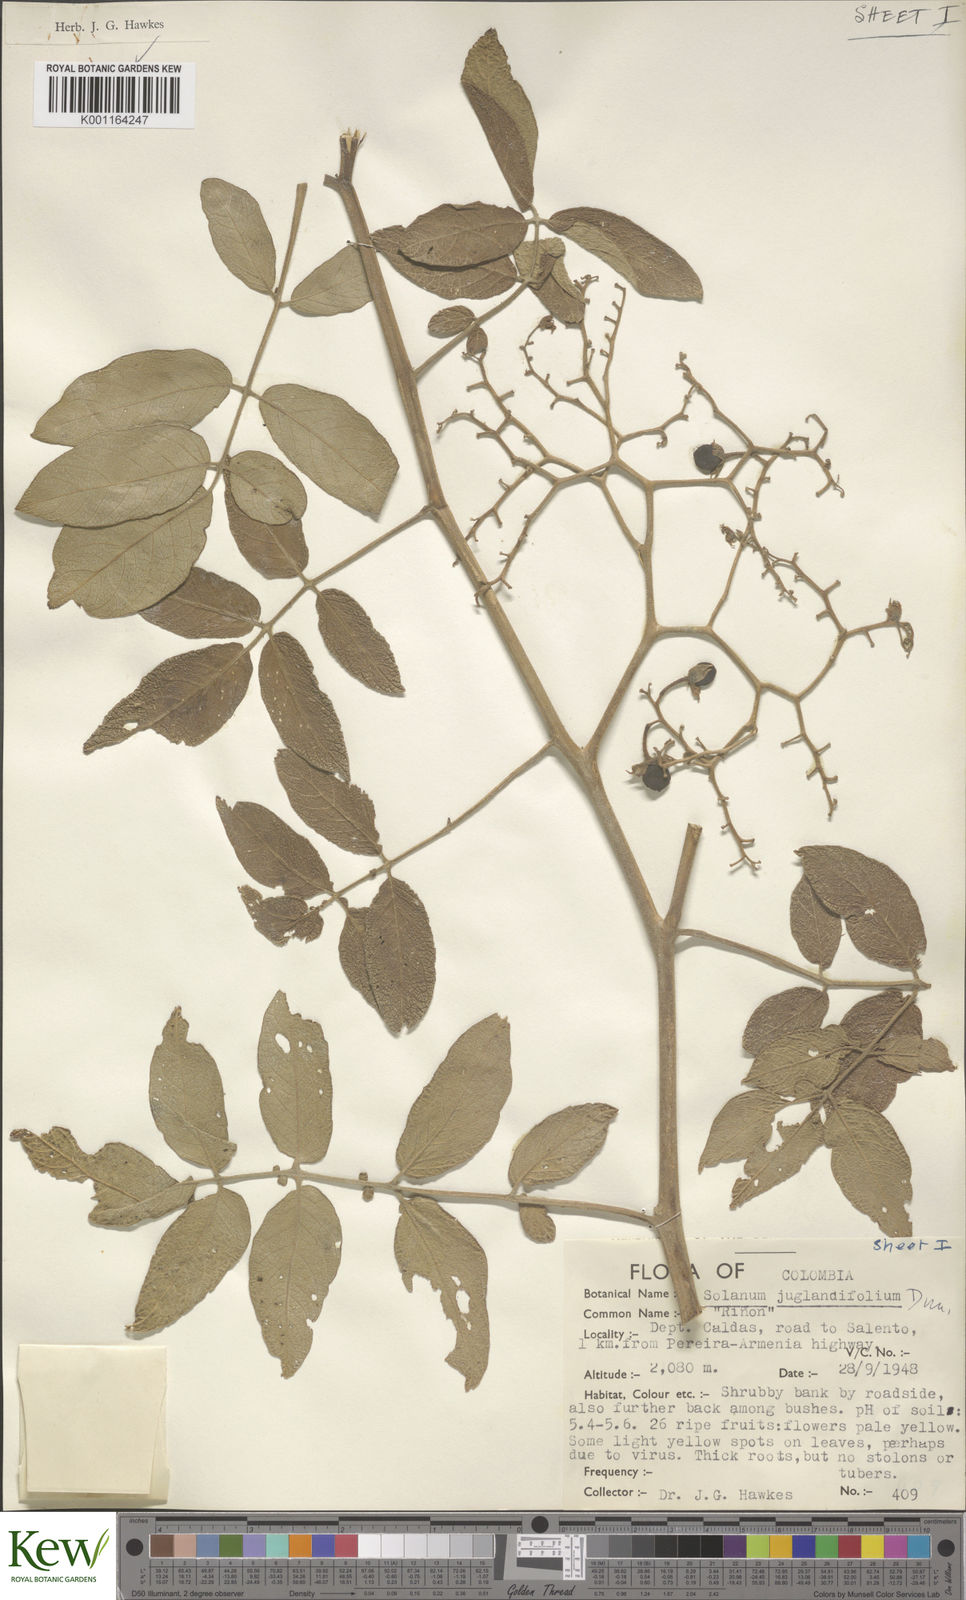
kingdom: Plantae
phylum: Tracheophyta
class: Magnoliopsida
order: Solanales
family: Solanaceae
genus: Solanum
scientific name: Solanum juglandifolium
